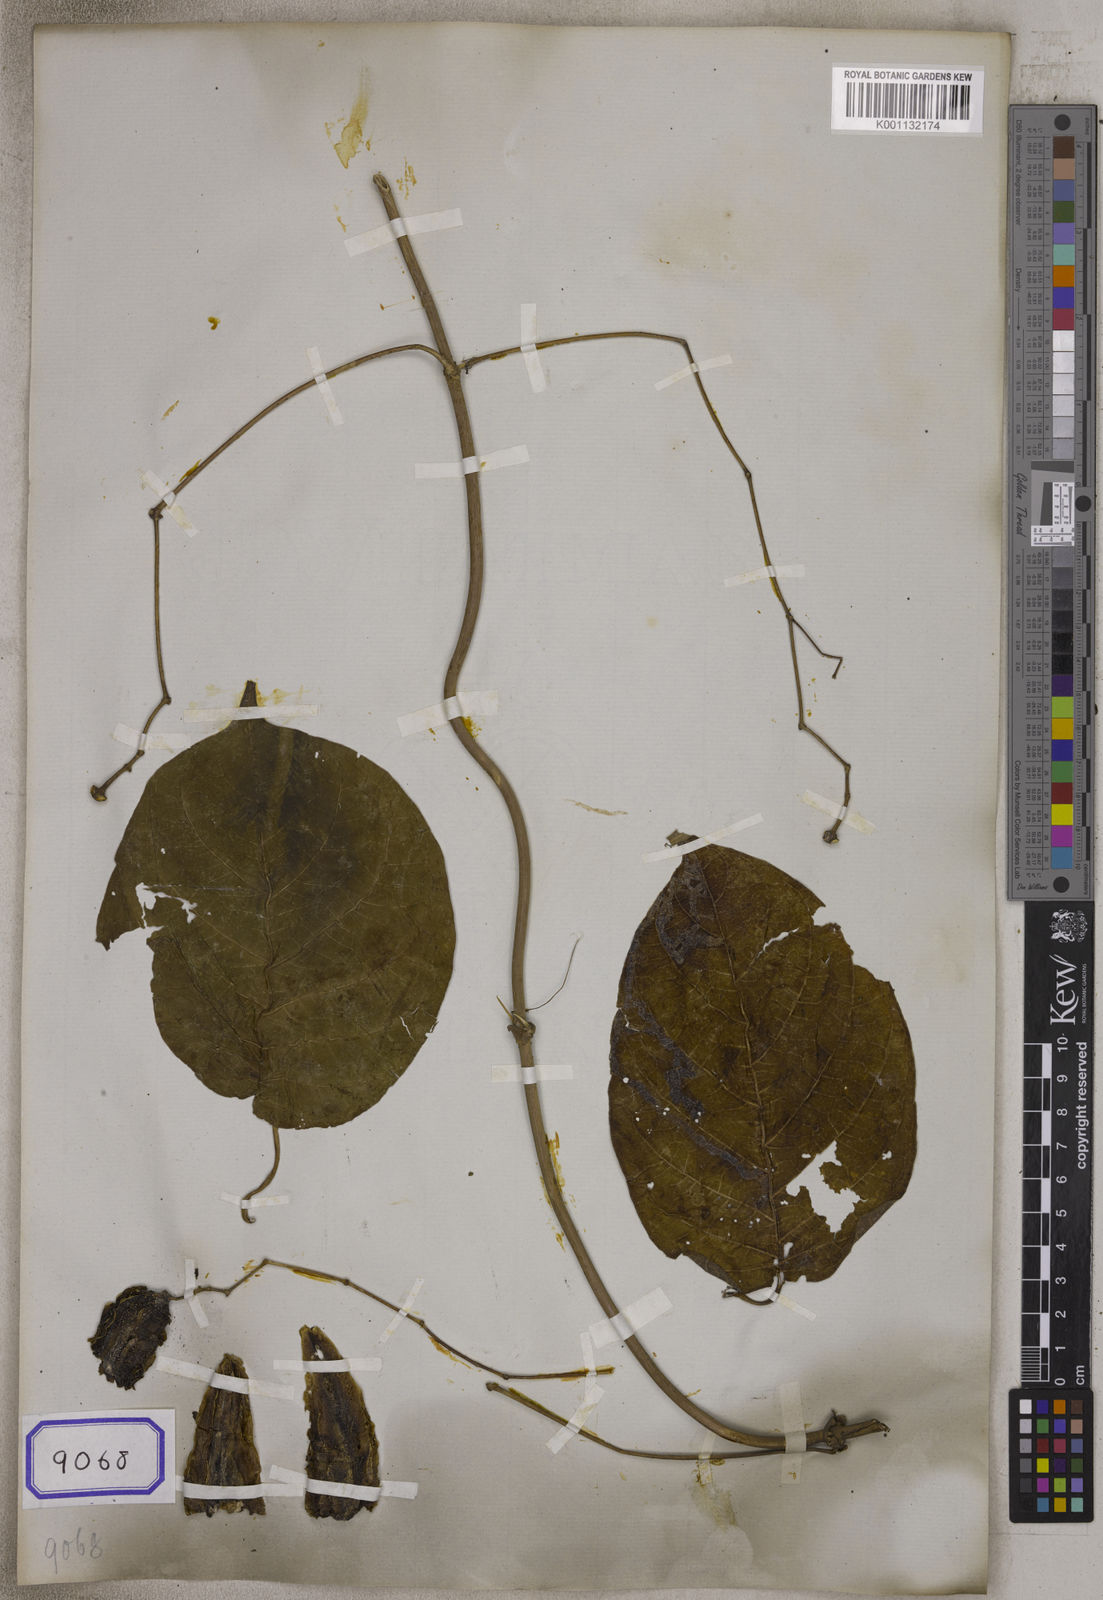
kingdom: Plantae
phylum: Tracheophyta
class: Magnoliopsida
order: Malvales
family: Malvaceae
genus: Vicarya
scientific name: Vicarya
